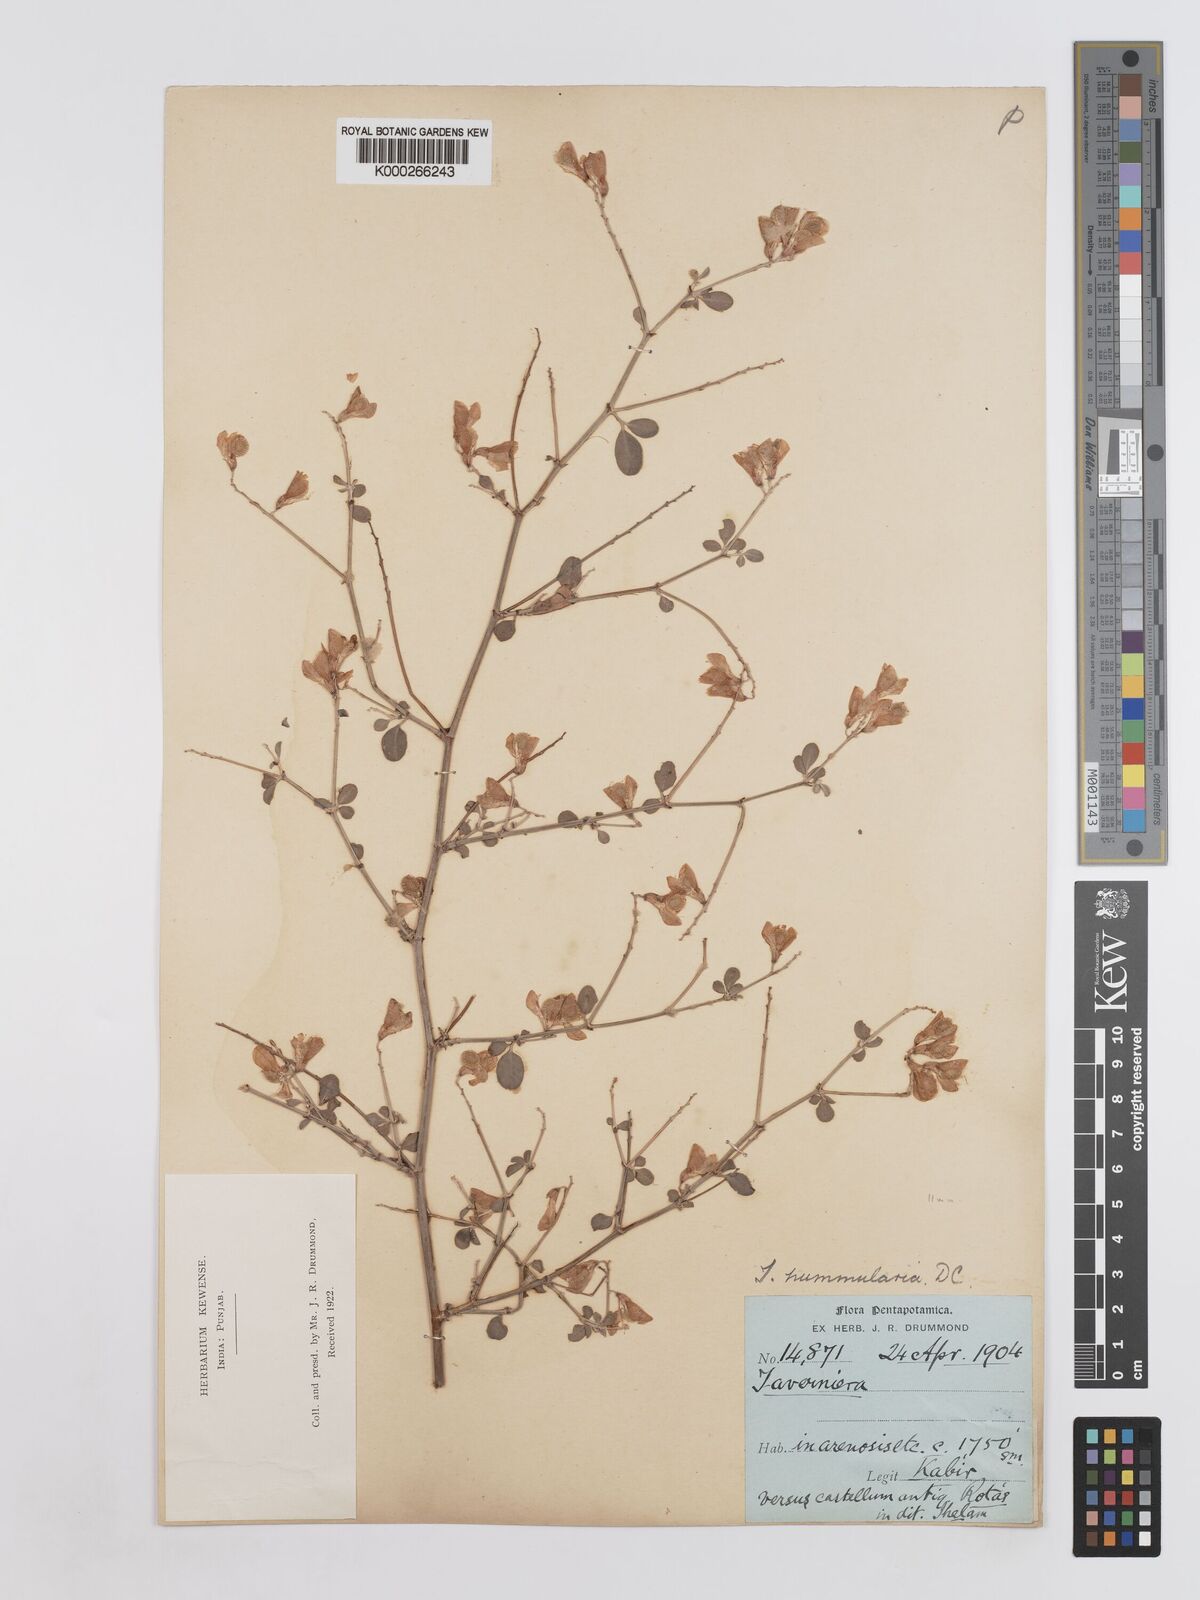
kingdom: Plantae
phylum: Tracheophyta
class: Magnoliopsida
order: Fabales
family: Fabaceae
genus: Taverniera
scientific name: Taverniera nummularia
